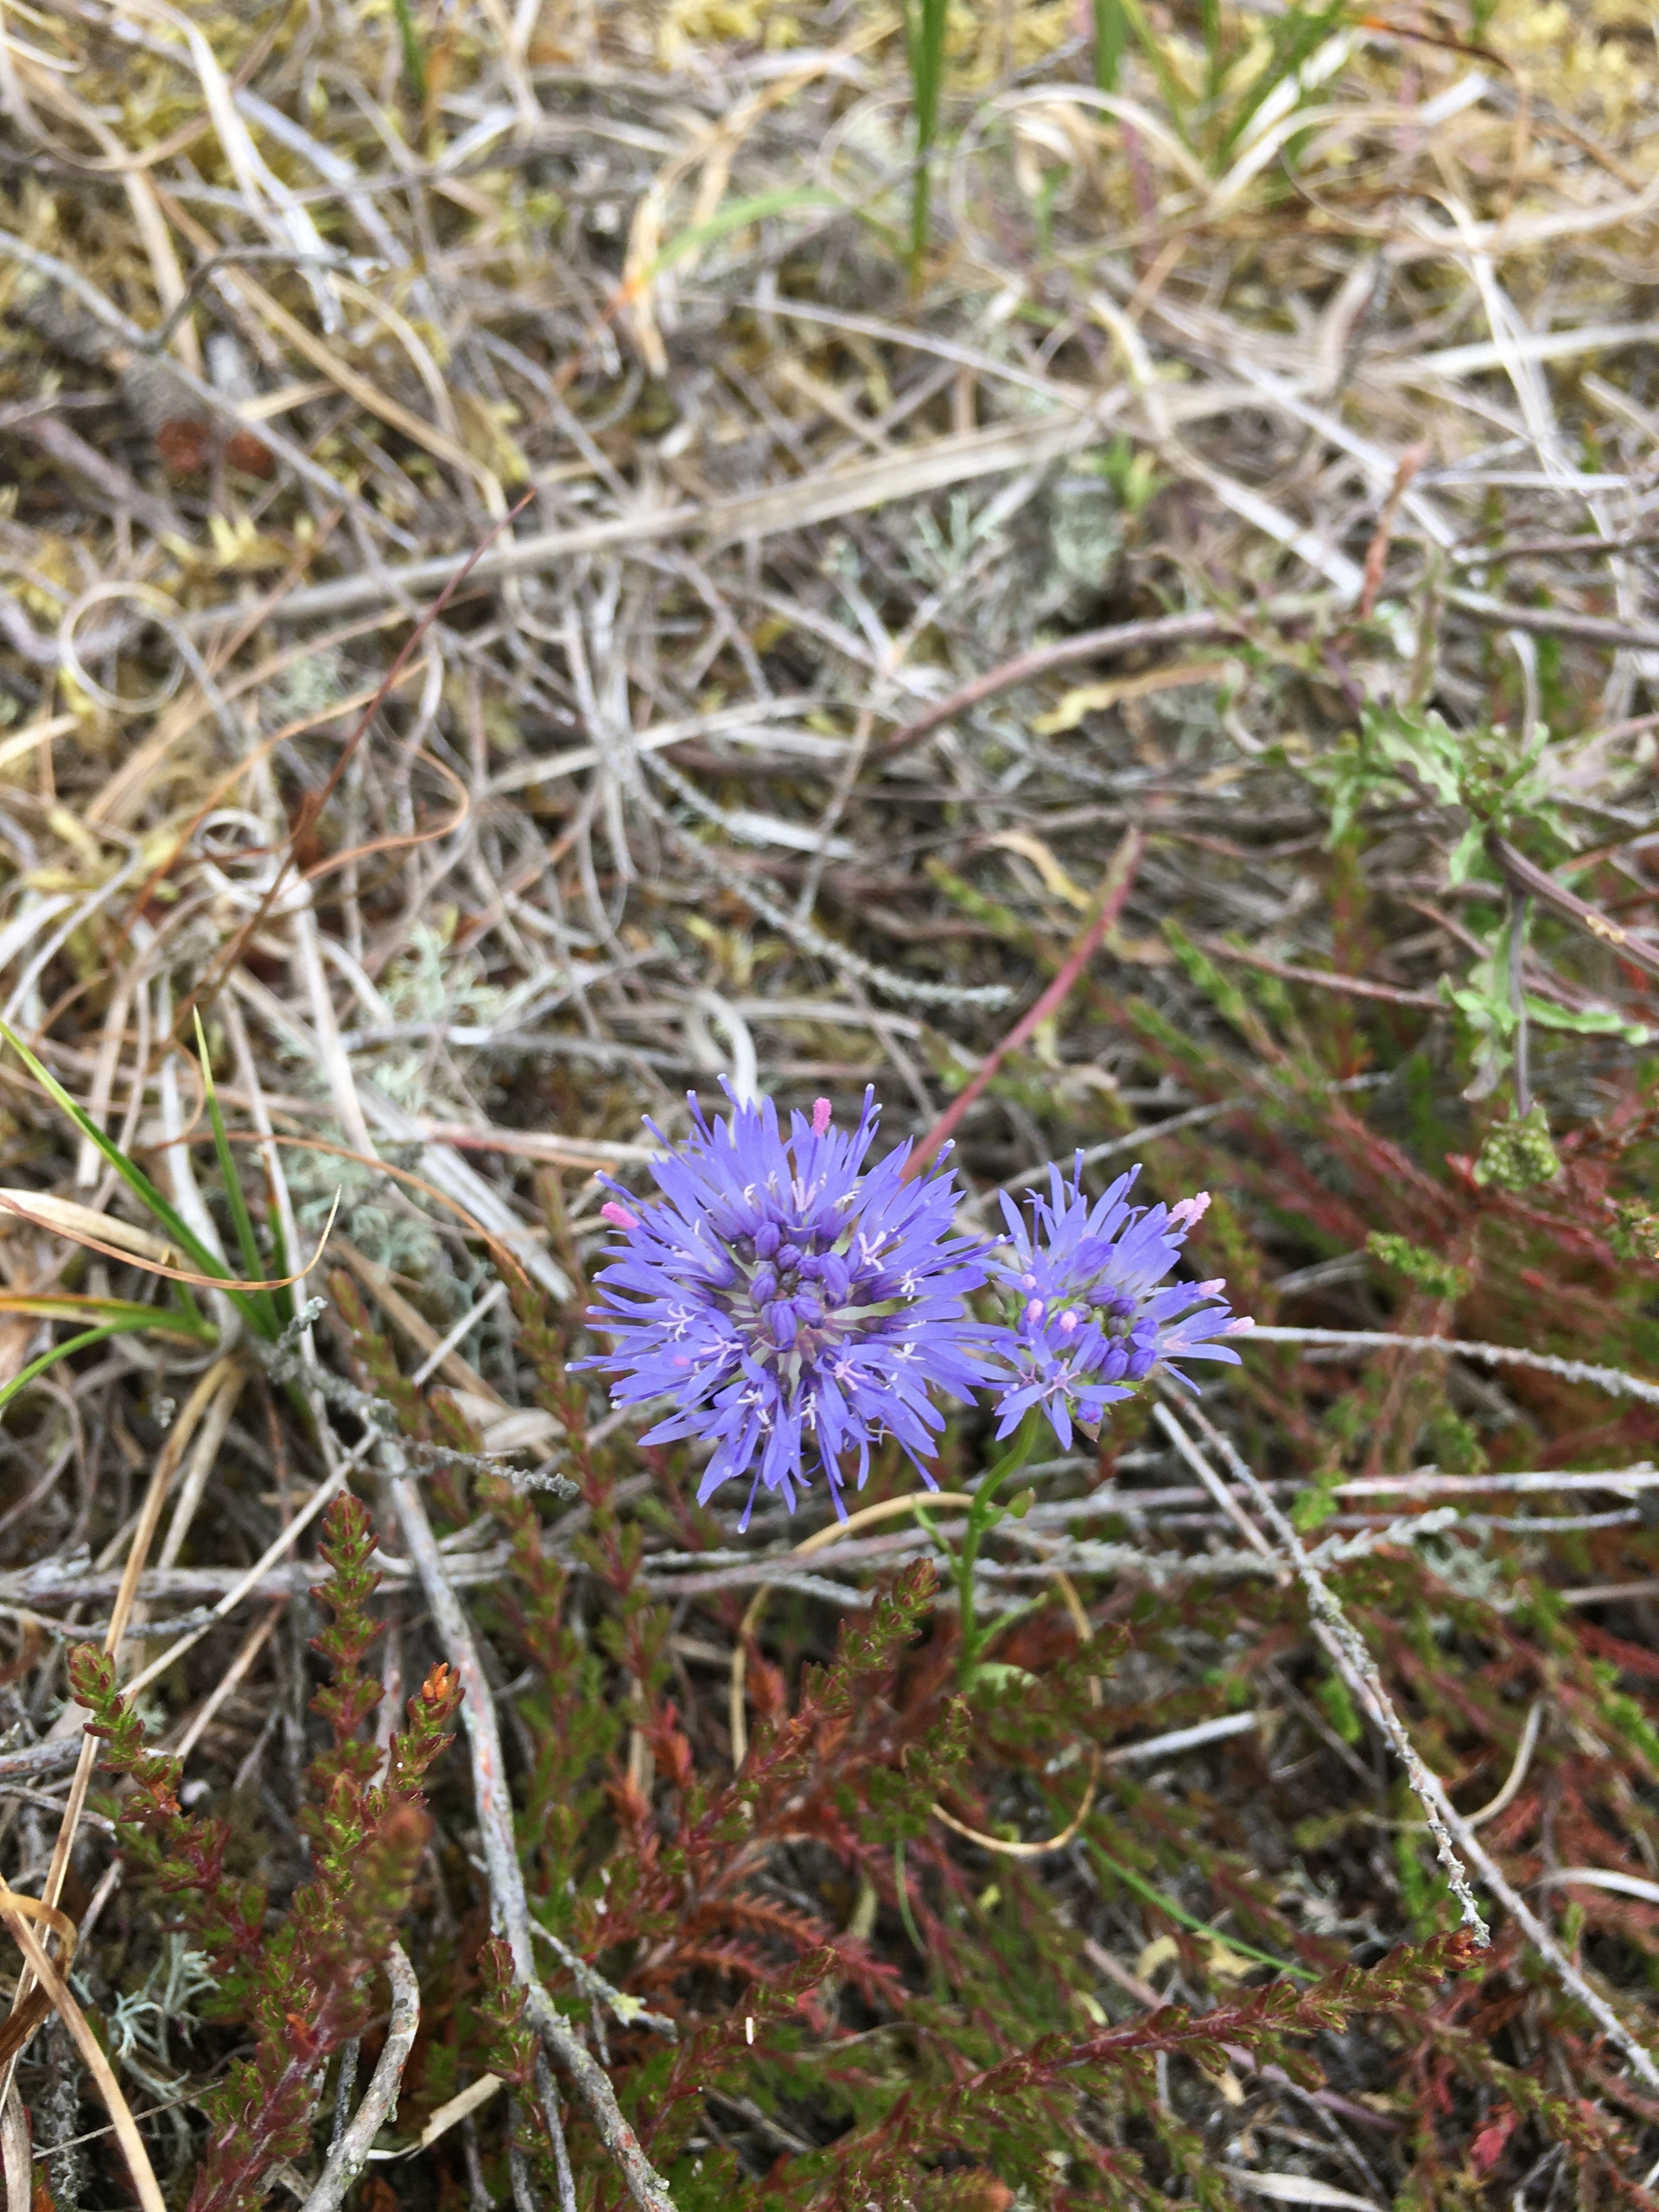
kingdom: Plantae
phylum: Tracheophyta
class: Magnoliopsida
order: Asterales
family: Campanulaceae
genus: Jasione
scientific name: Jasione montana
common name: Blåmunke
